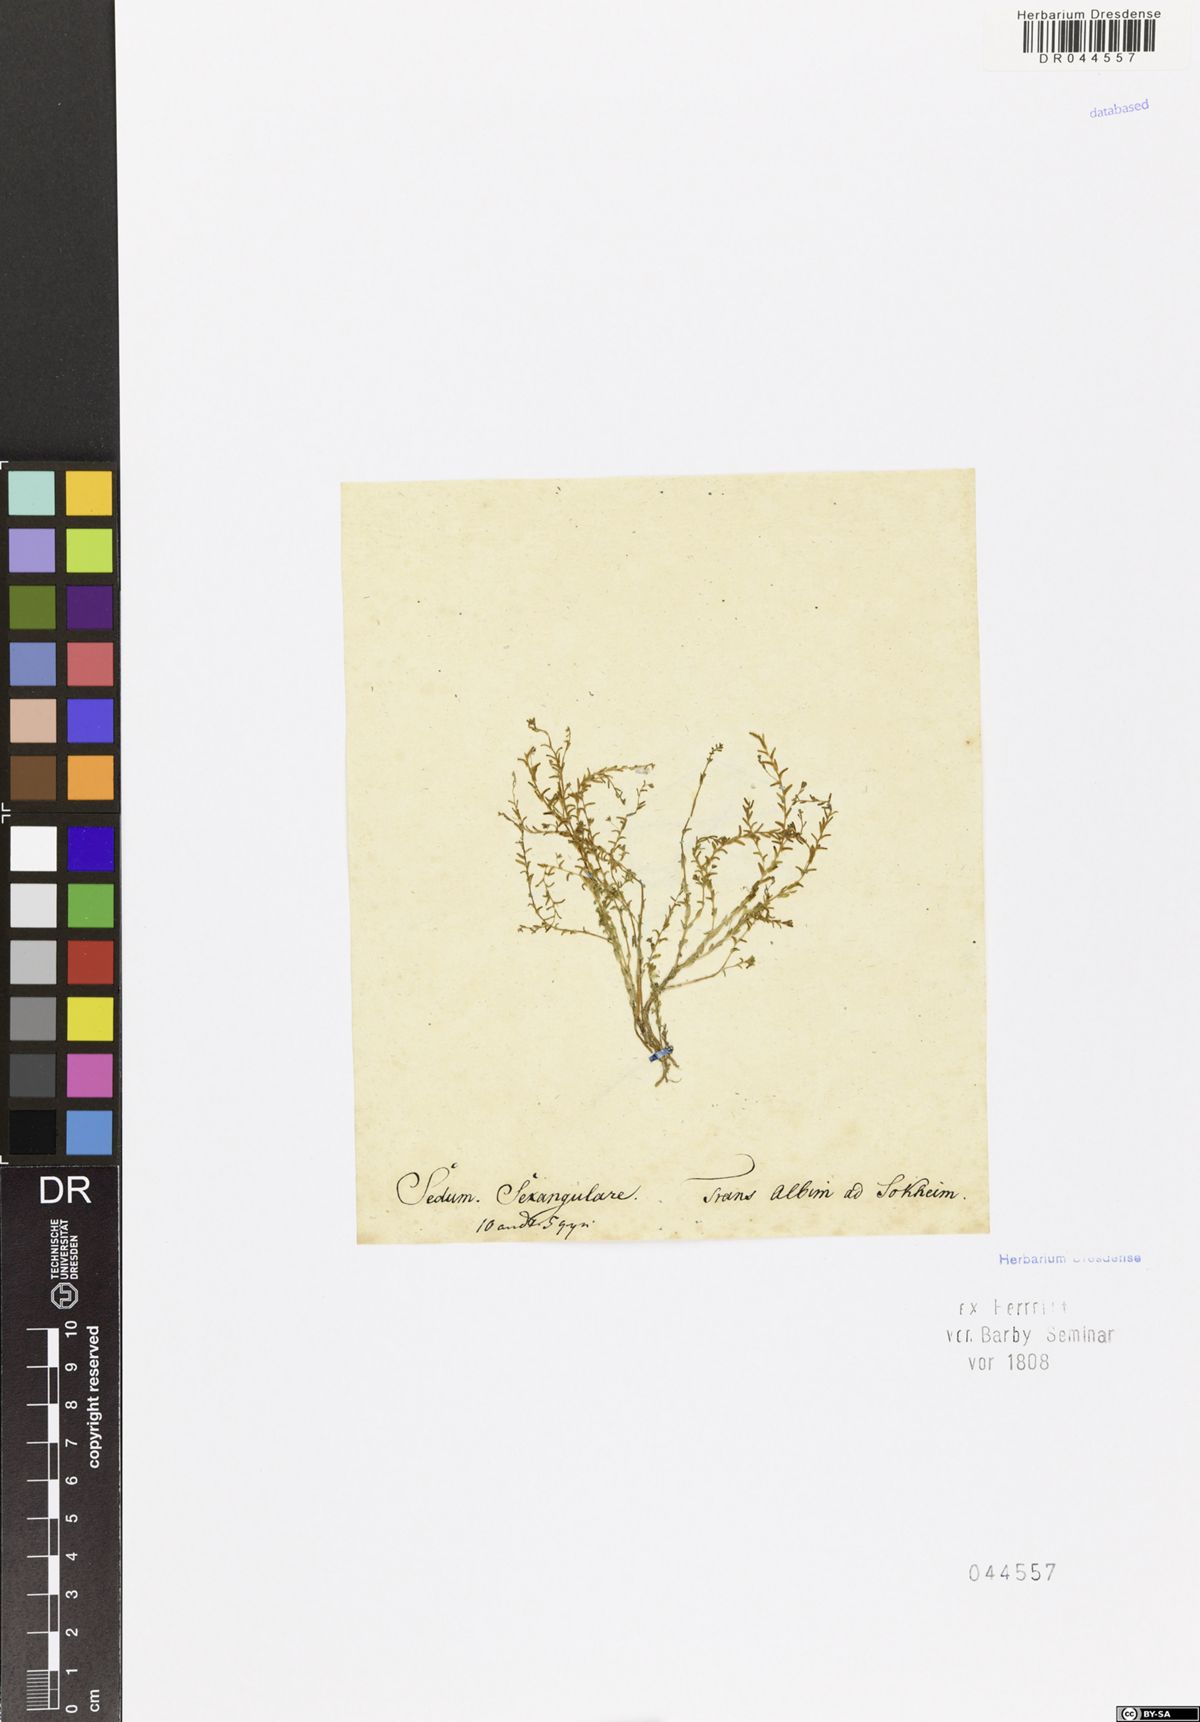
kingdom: Plantae
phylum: Tracheophyta
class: Magnoliopsida
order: Saxifragales
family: Crassulaceae
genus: Sedum
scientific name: Sedum sexangulare
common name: Tasteless stonecrop
